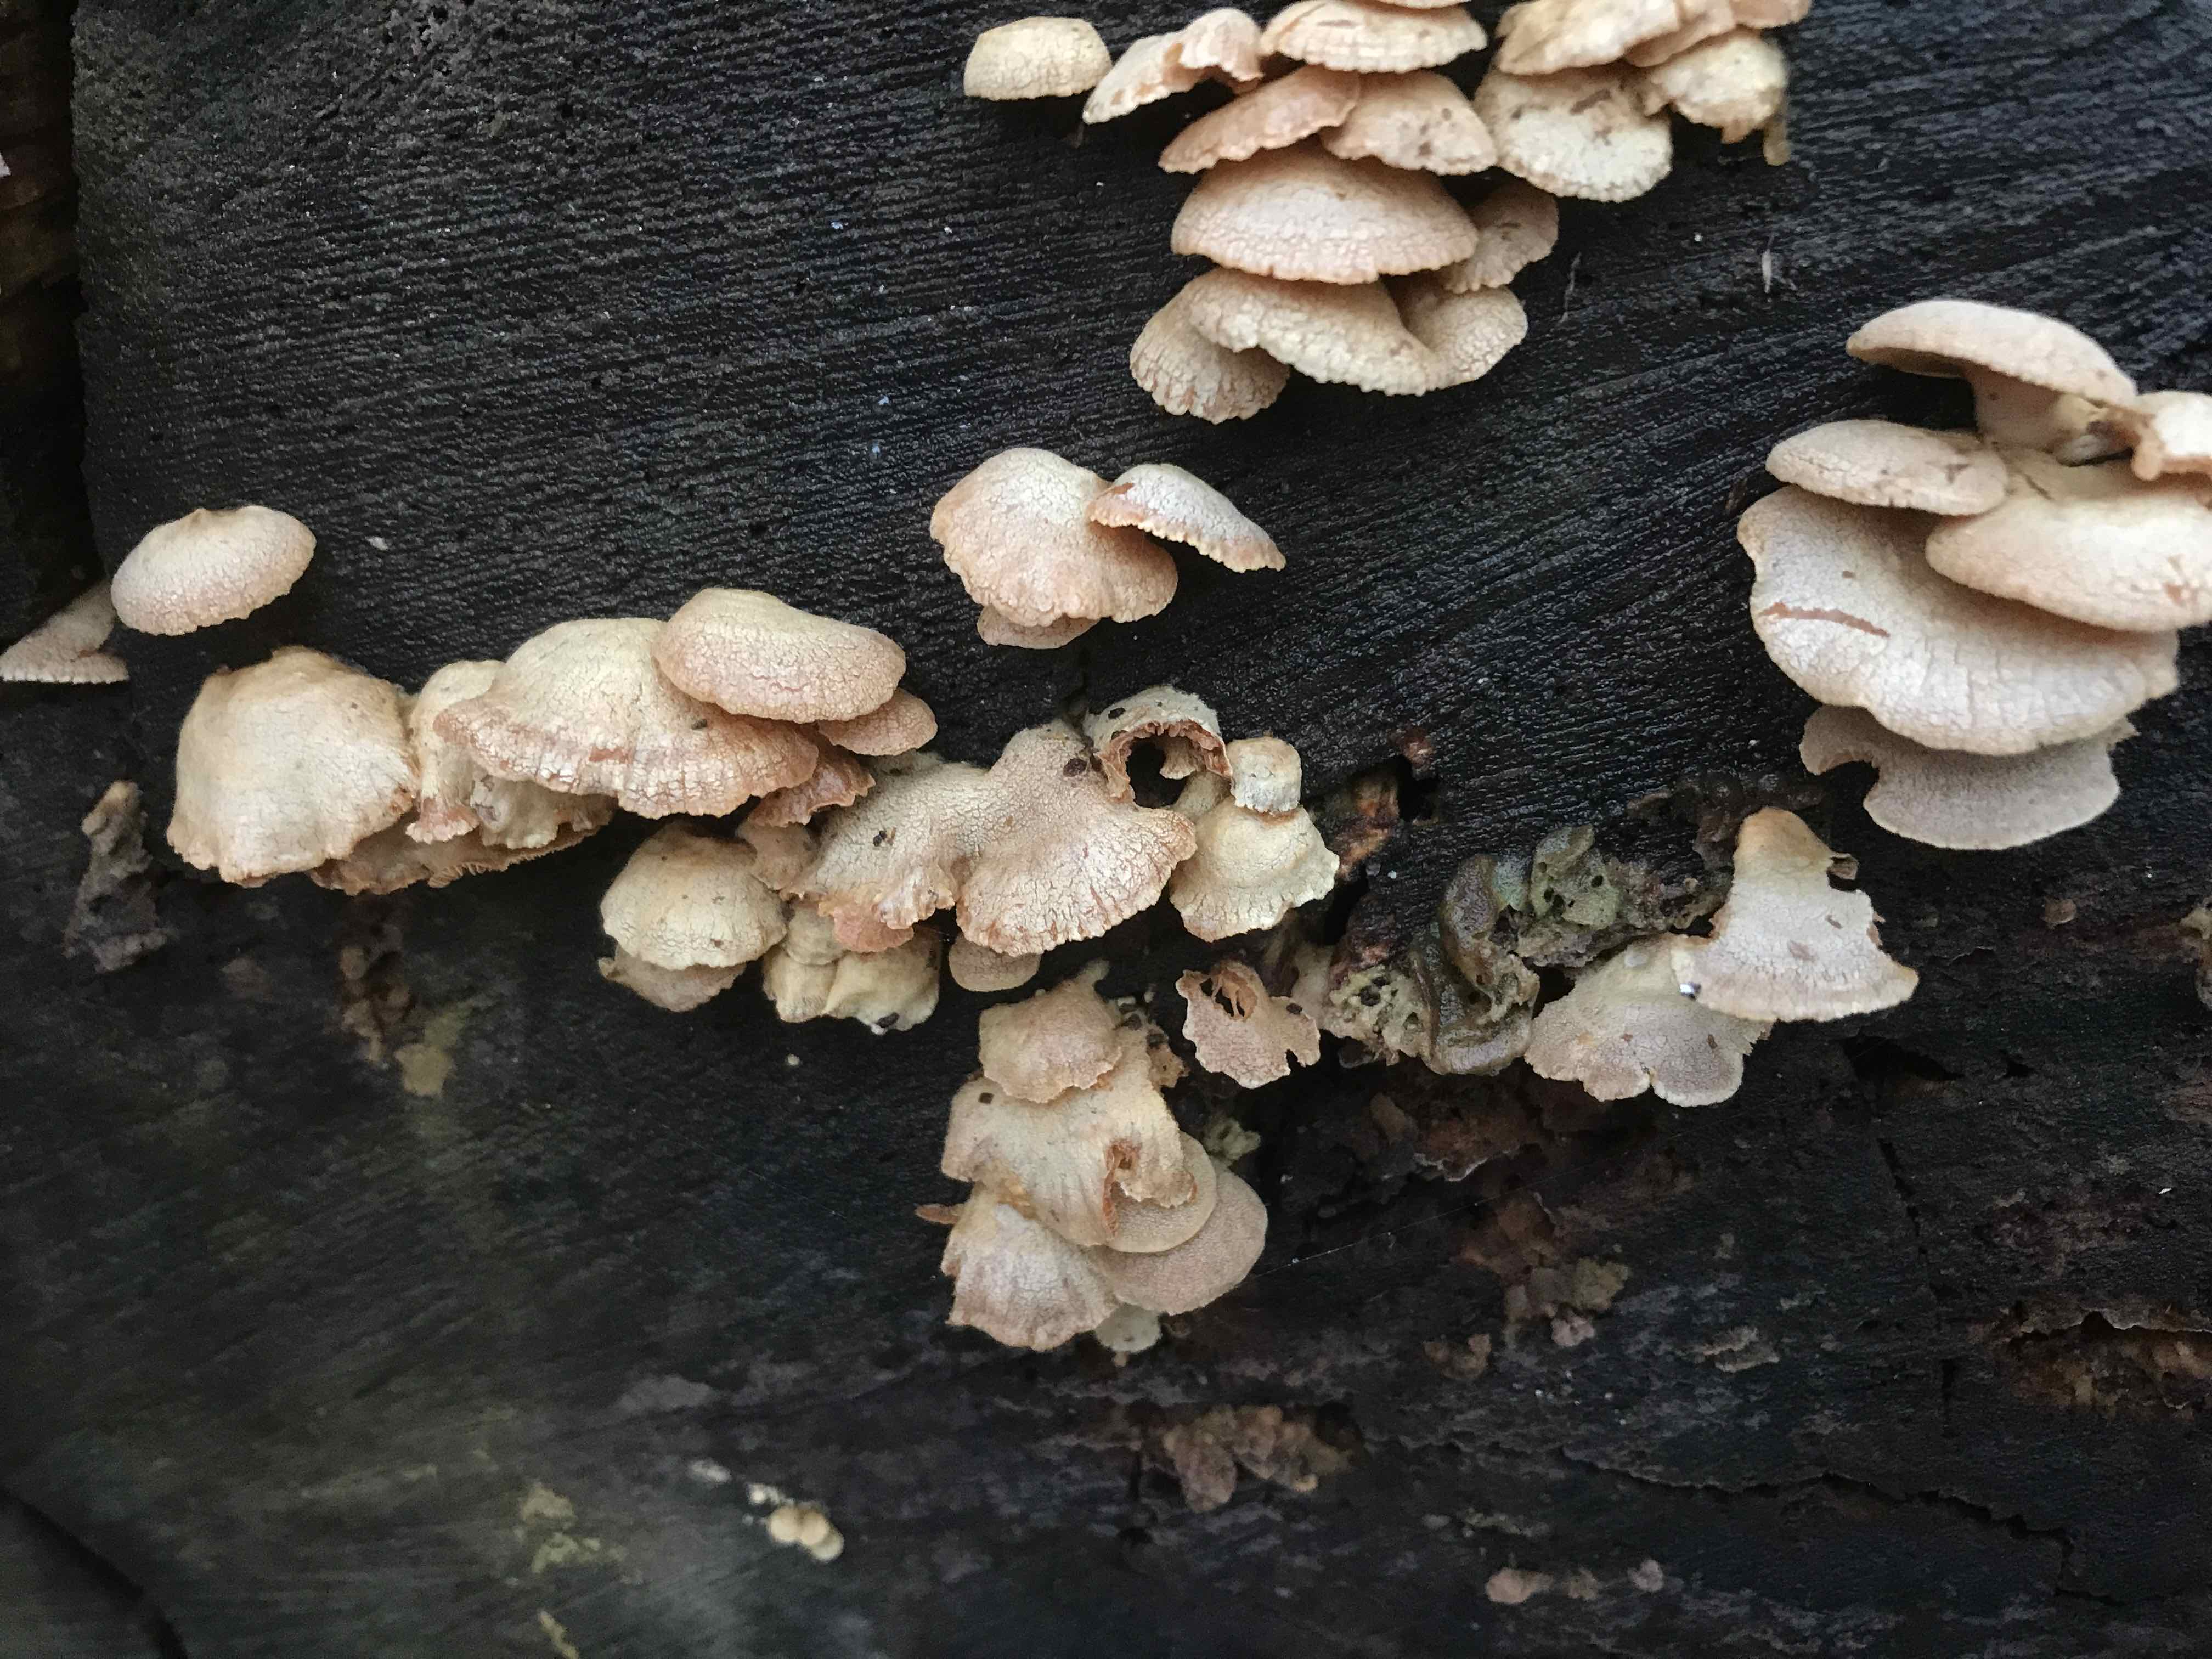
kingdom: Fungi
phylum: Basidiomycota
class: Agaricomycetes
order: Agaricales
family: Mycenaceae
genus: Panellus
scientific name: Panellus stipticus
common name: kliddet epaulethat
